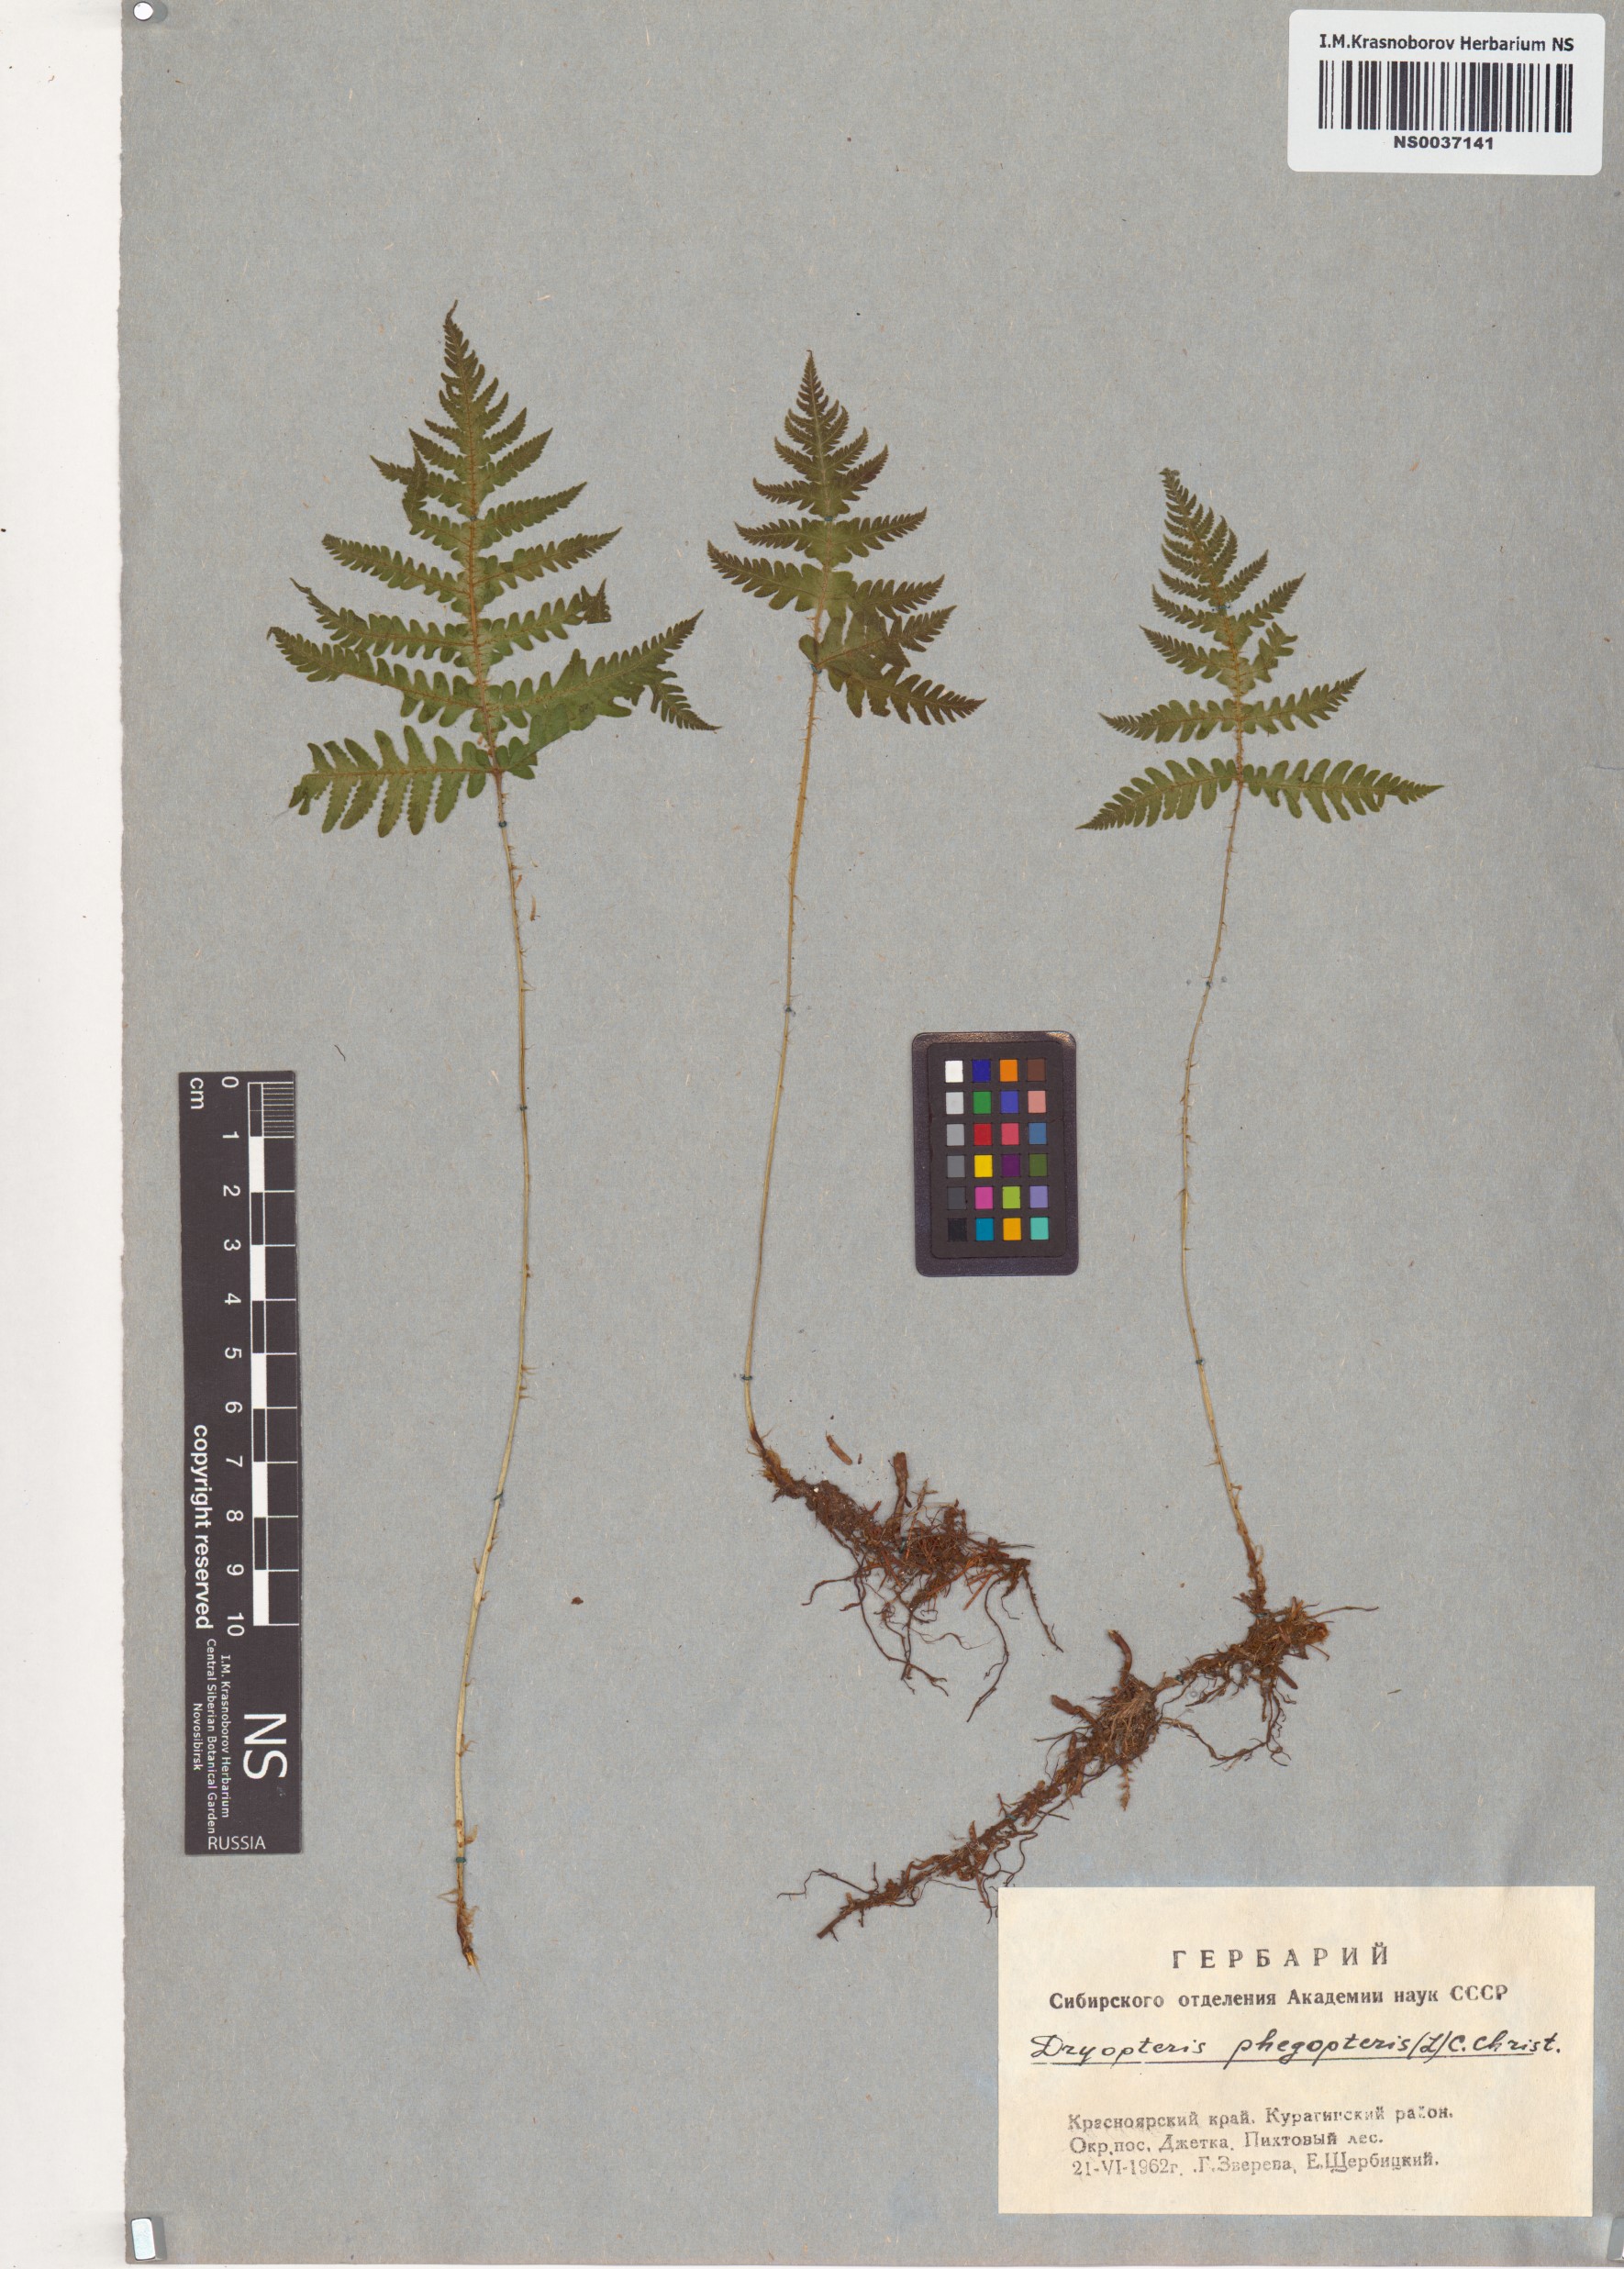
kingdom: Plantae
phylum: Tracheophyta
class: Polypodiopsida
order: Polypodiales
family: Thelypteridaceae
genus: Phegopteris
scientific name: Phegopteris connectilis
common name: Beech fern
